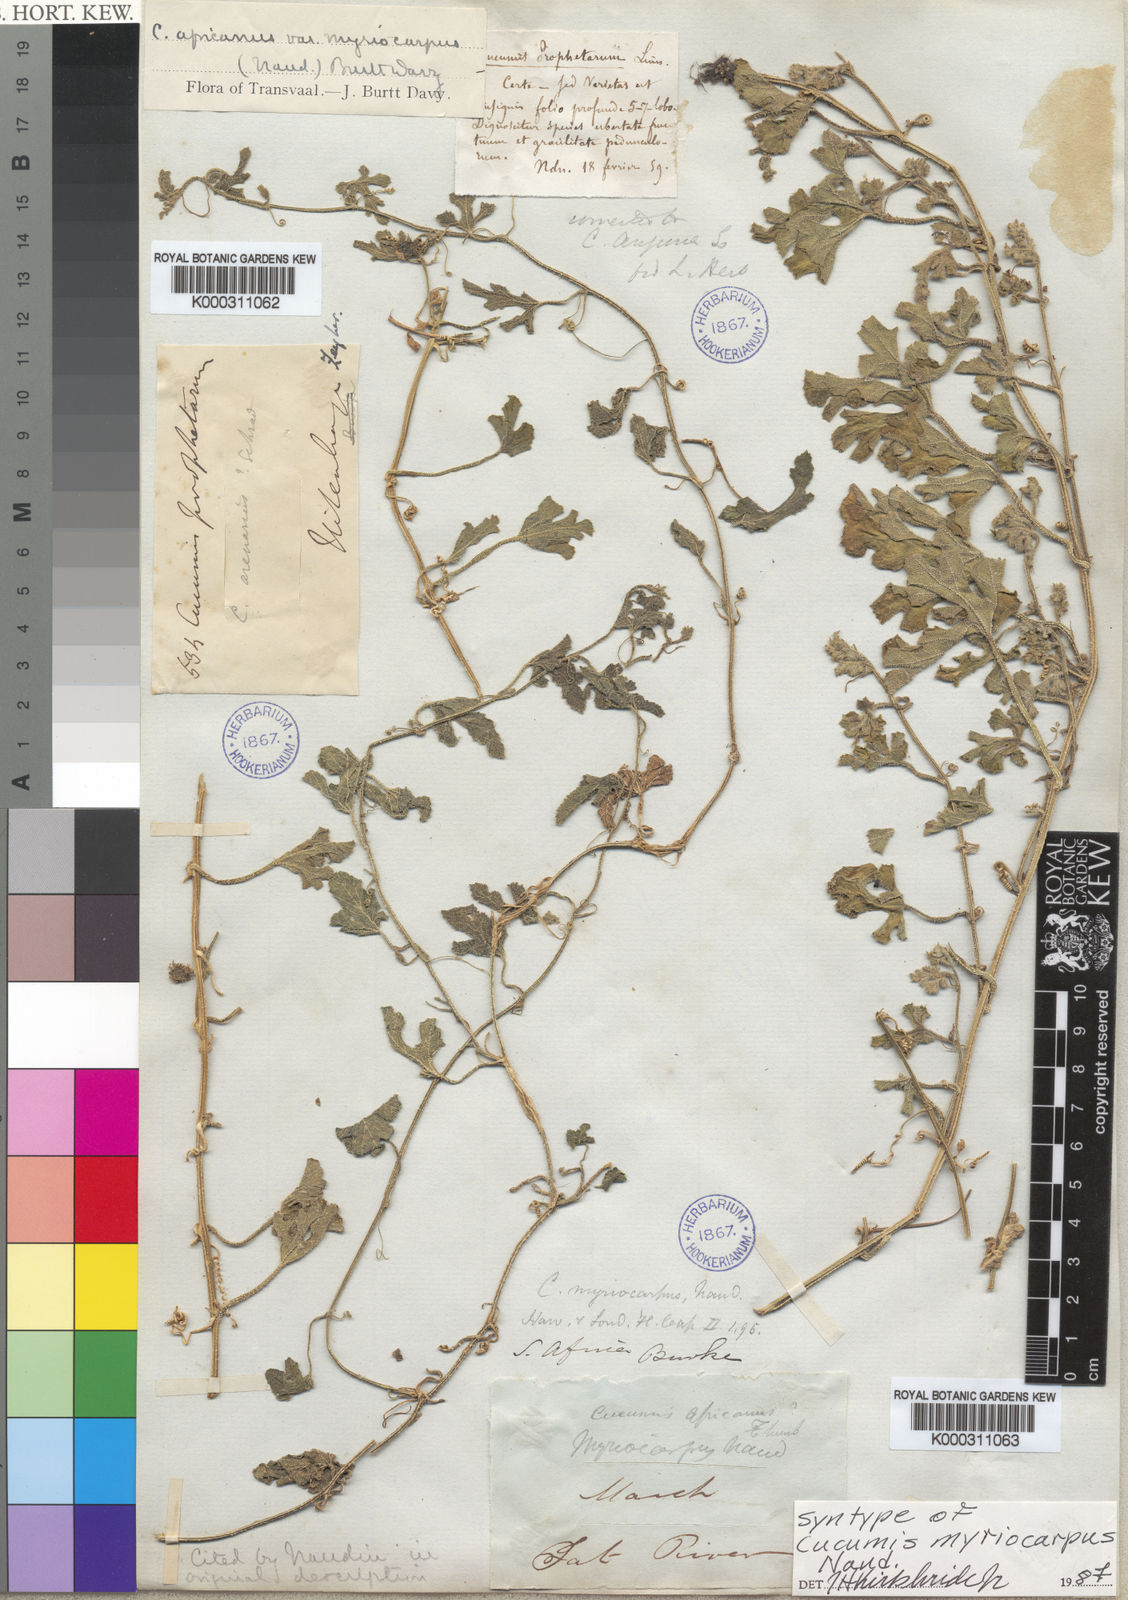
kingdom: Plantae
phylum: Tracheophyta
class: Magnoliopsida
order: Cucurbitales
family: Cucurbitaceae
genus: Cucumis
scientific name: Cucumis myriocarpus
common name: Gooseberry cucumber
